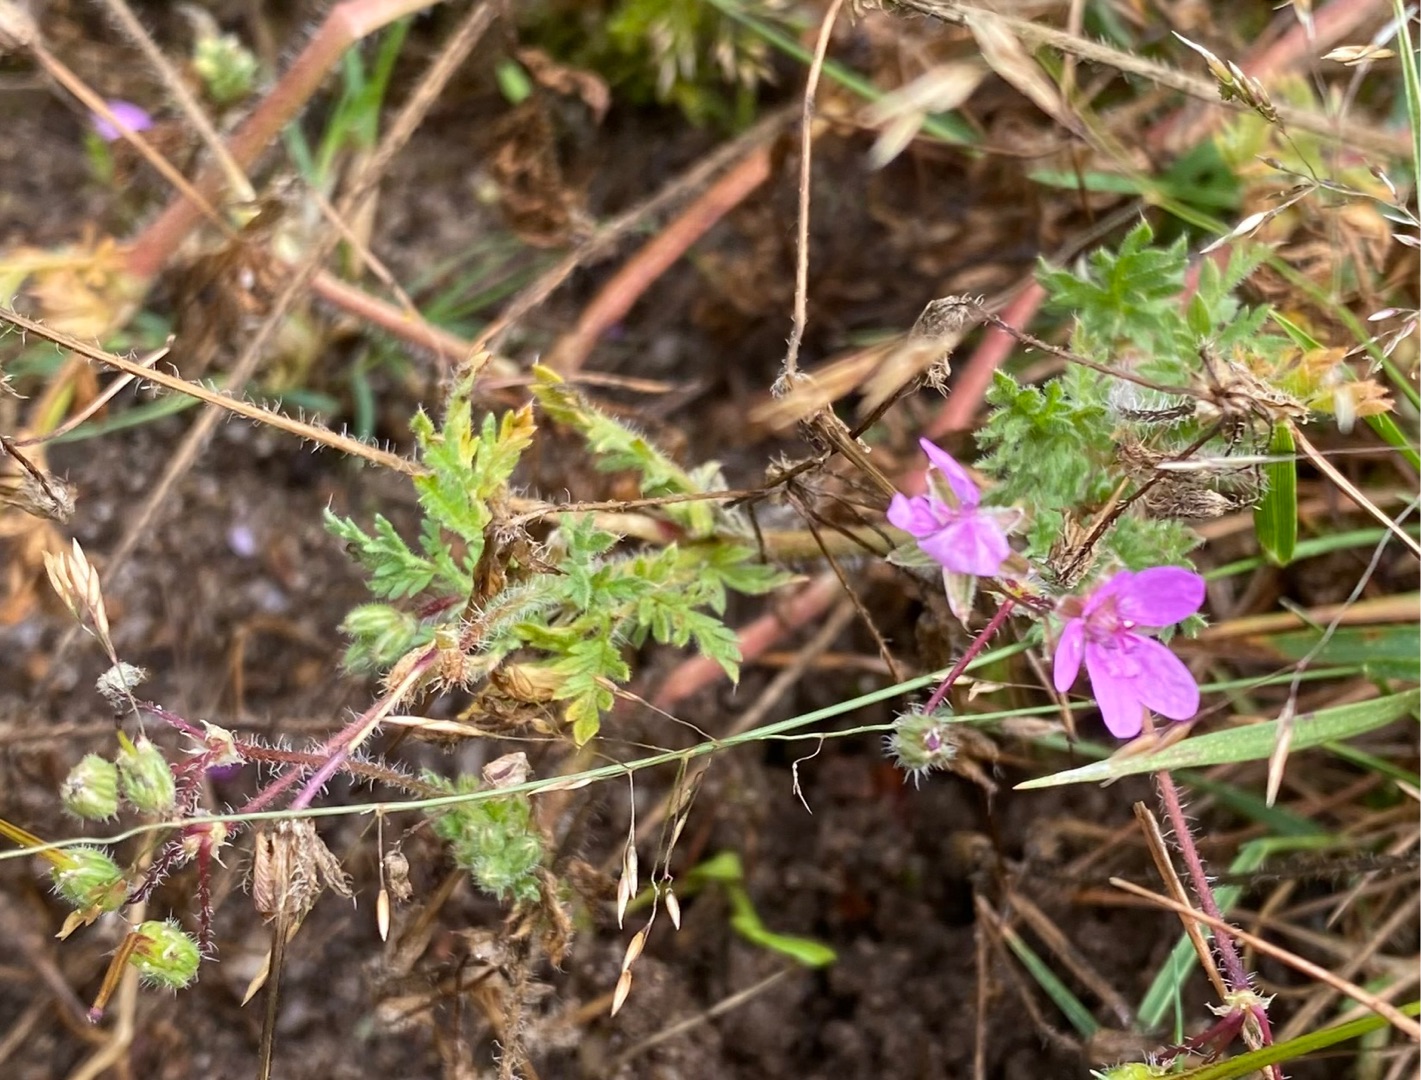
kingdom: Plantae
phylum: Tracheophyta
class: Magnoliopsida
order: Geraniales
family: Geraniaceae
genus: Erodium
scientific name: Erodium cicutarium
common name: Hejrenæb
